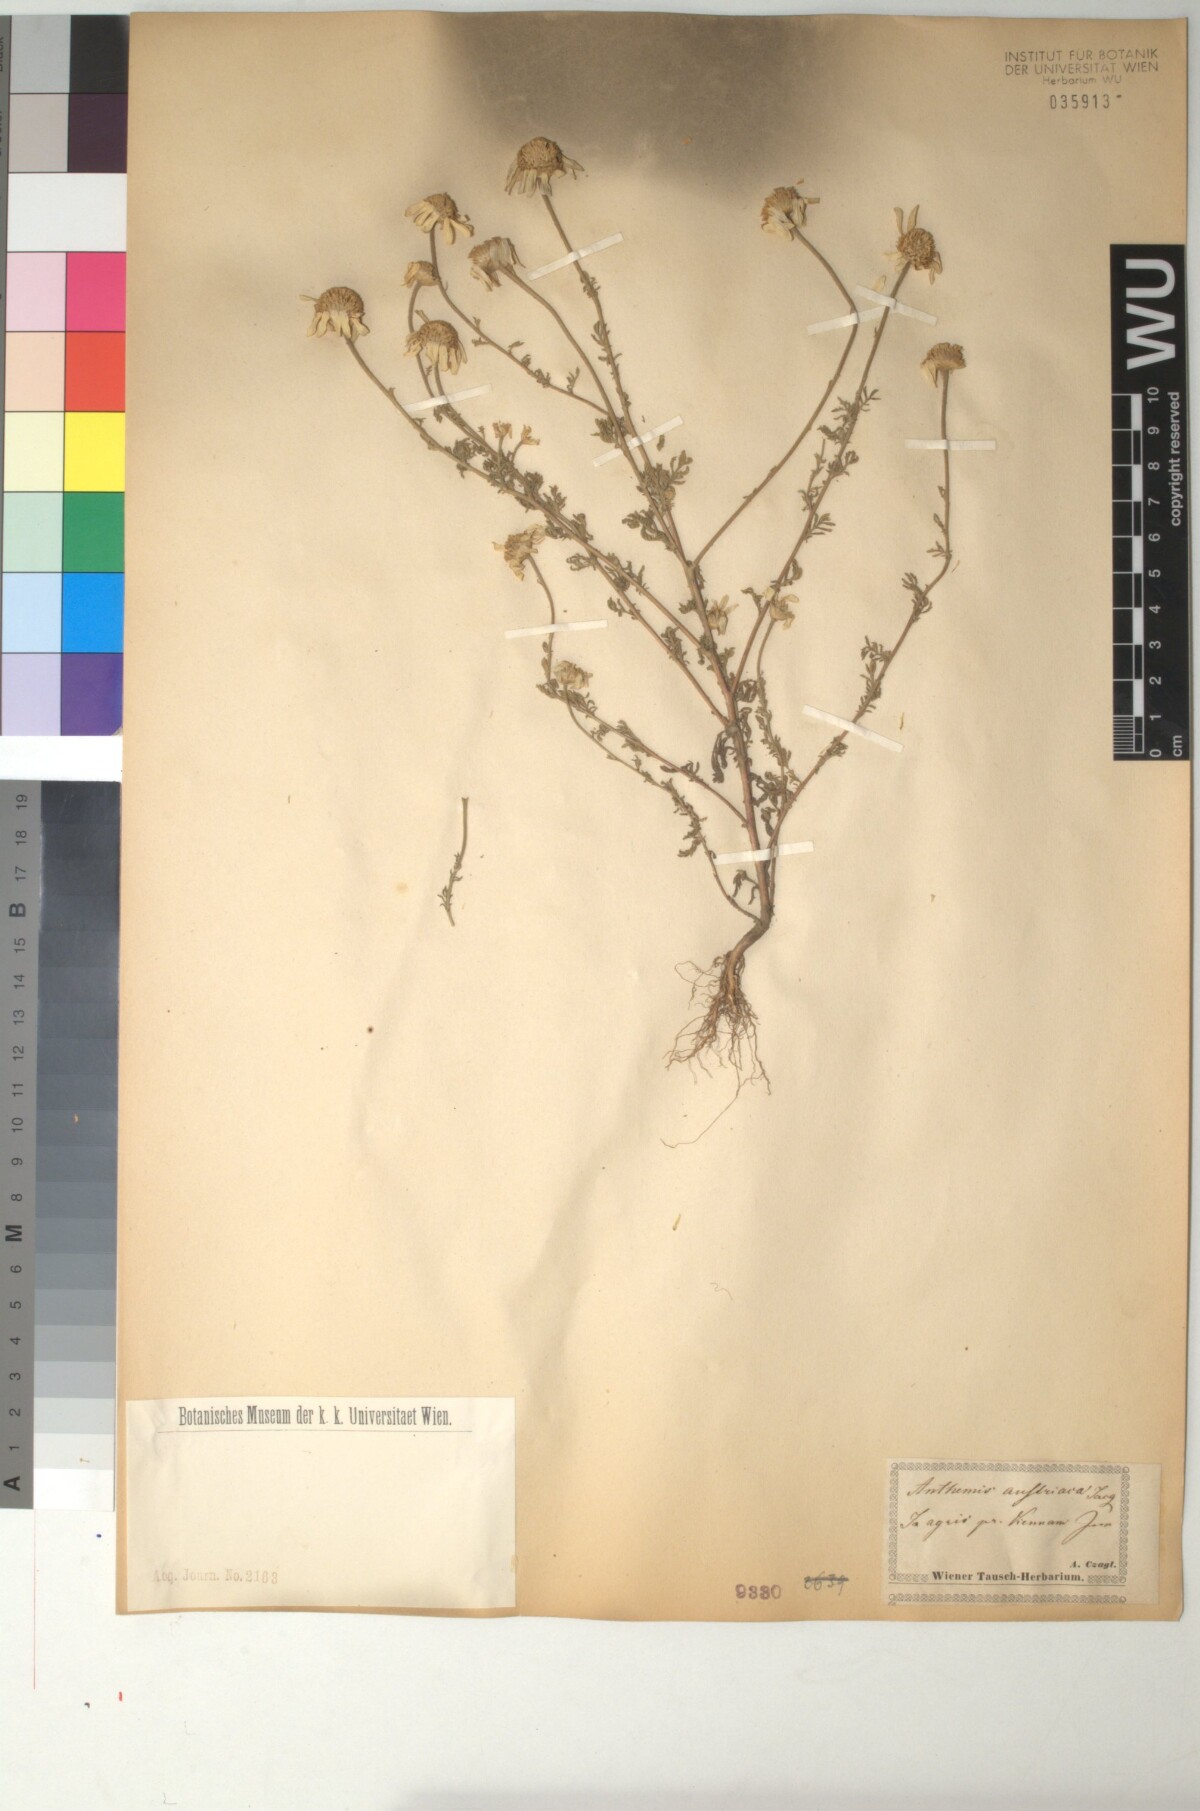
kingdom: Plantae
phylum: Tracheophyta
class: Magnoliopsida
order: Asterales
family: Asteraceae
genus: Cota
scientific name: Cota austriaca
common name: Austrian chamomile
